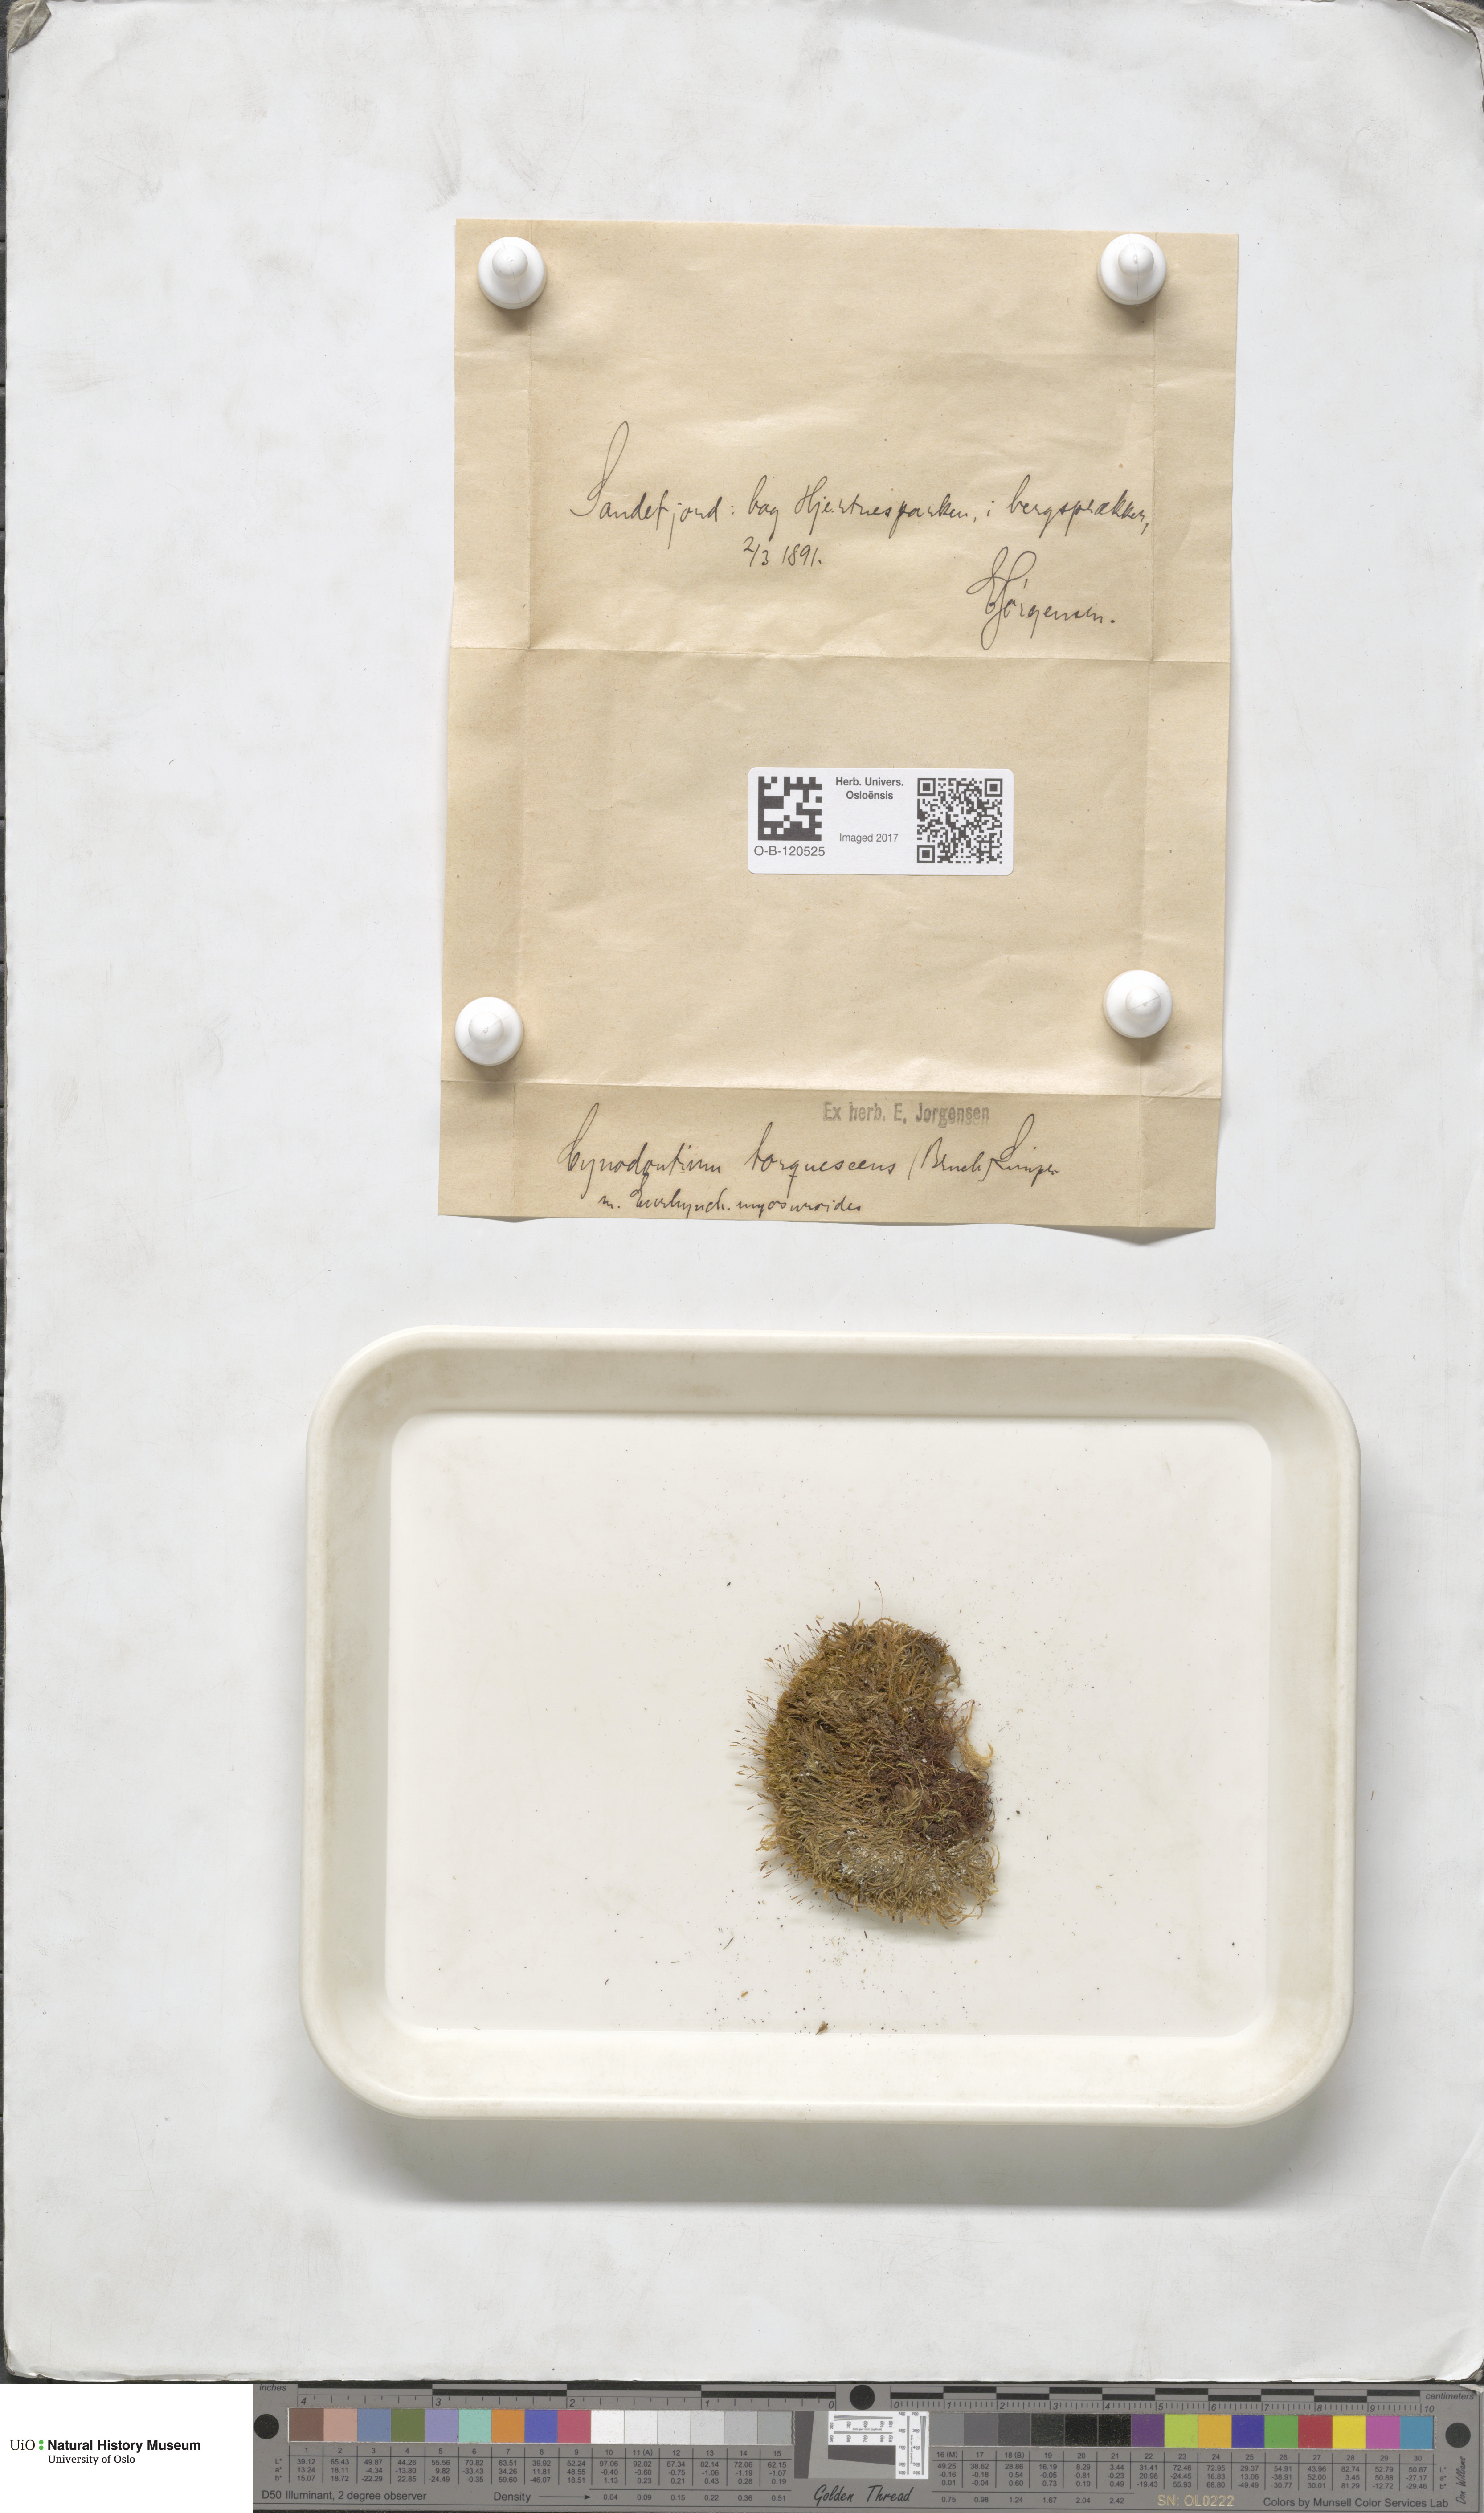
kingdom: Plantae
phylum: Bryophyta
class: Bryopsida
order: Dicranales
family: Rhabdoweisiaceae
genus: Cynodontium
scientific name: Cynodontium tenellum
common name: Delicate dogtooth moss
